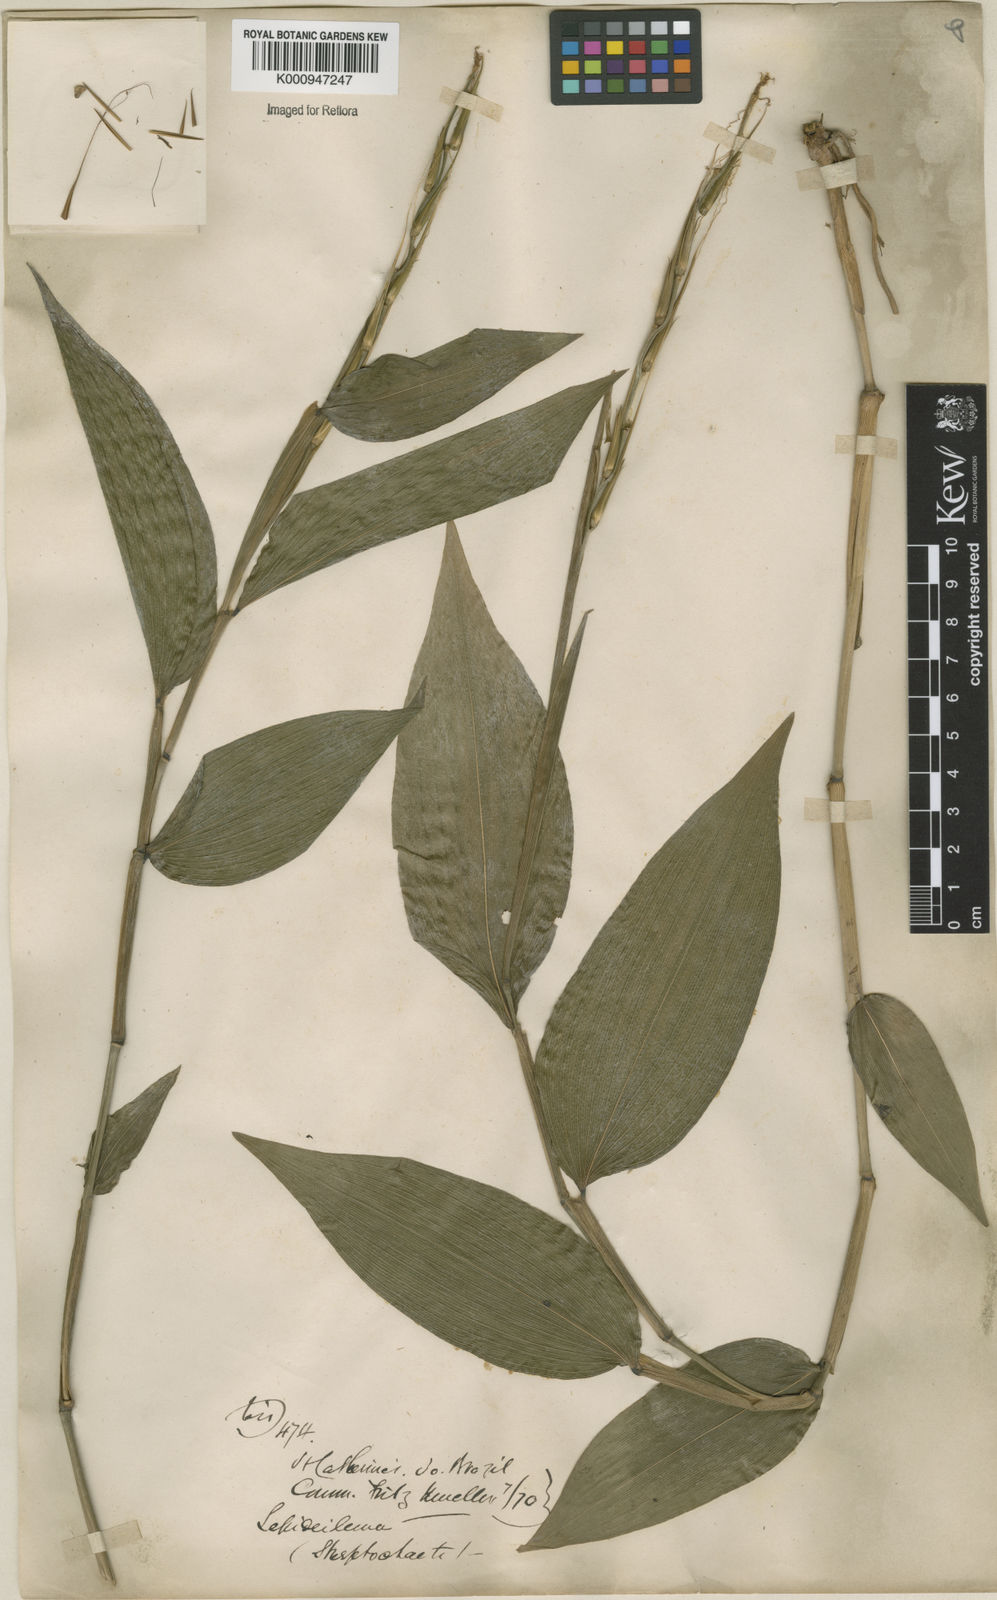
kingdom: Plantae
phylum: Tracheophyta
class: Liliopsida
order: Poales
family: Poaceae
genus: Streptochaeta
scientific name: Streptochaeta spicata
